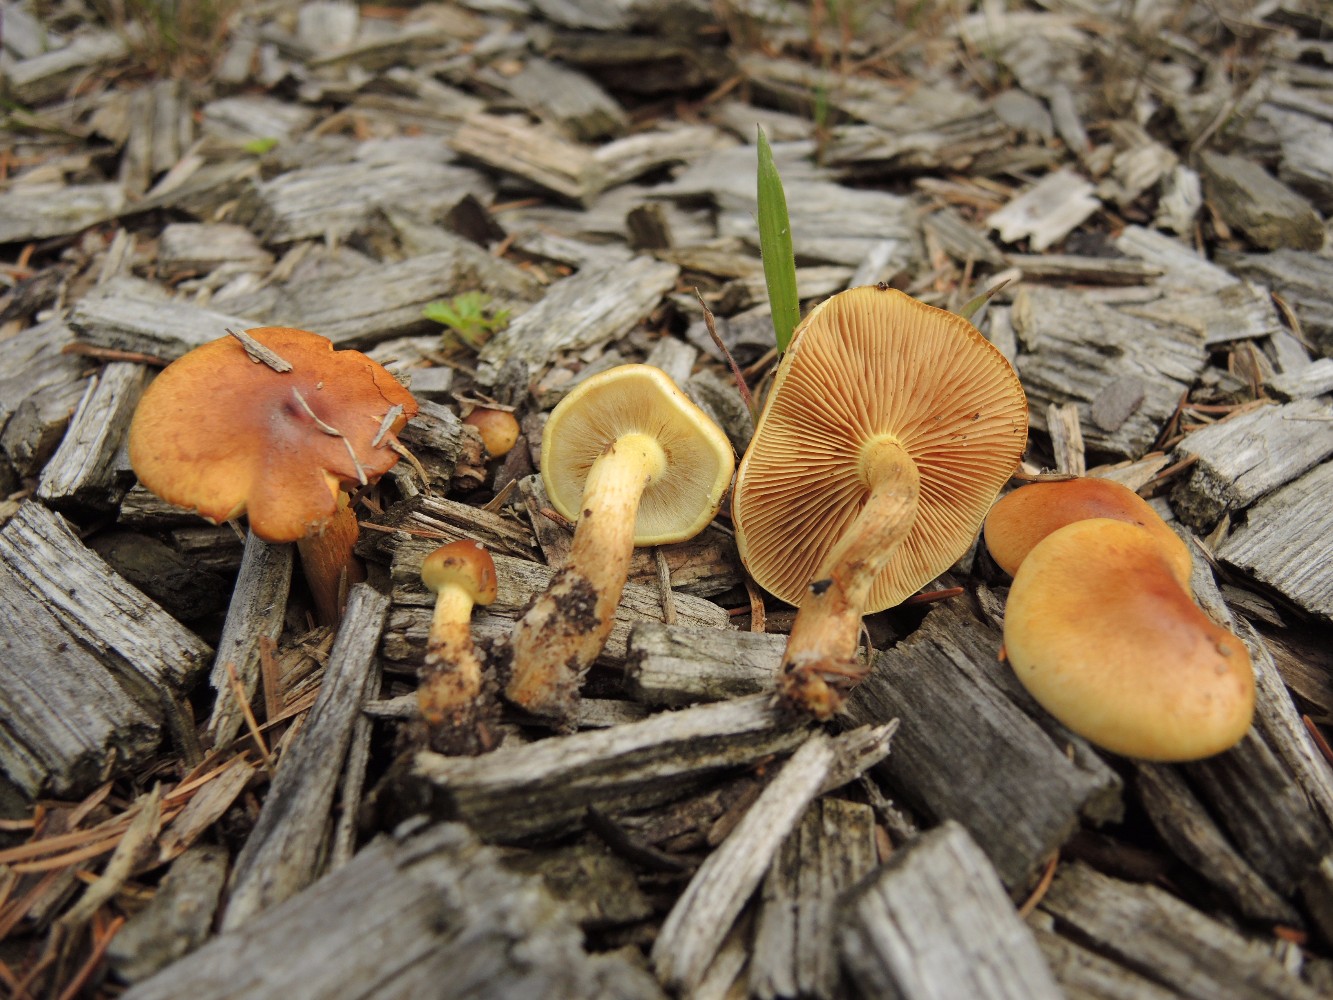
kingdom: Fungi
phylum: Basidiomycota
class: Agaricomycetes
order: Agaricales
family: Strophariaceae
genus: Pholiota
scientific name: Pholiota spumosa
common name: gran-skælhat
